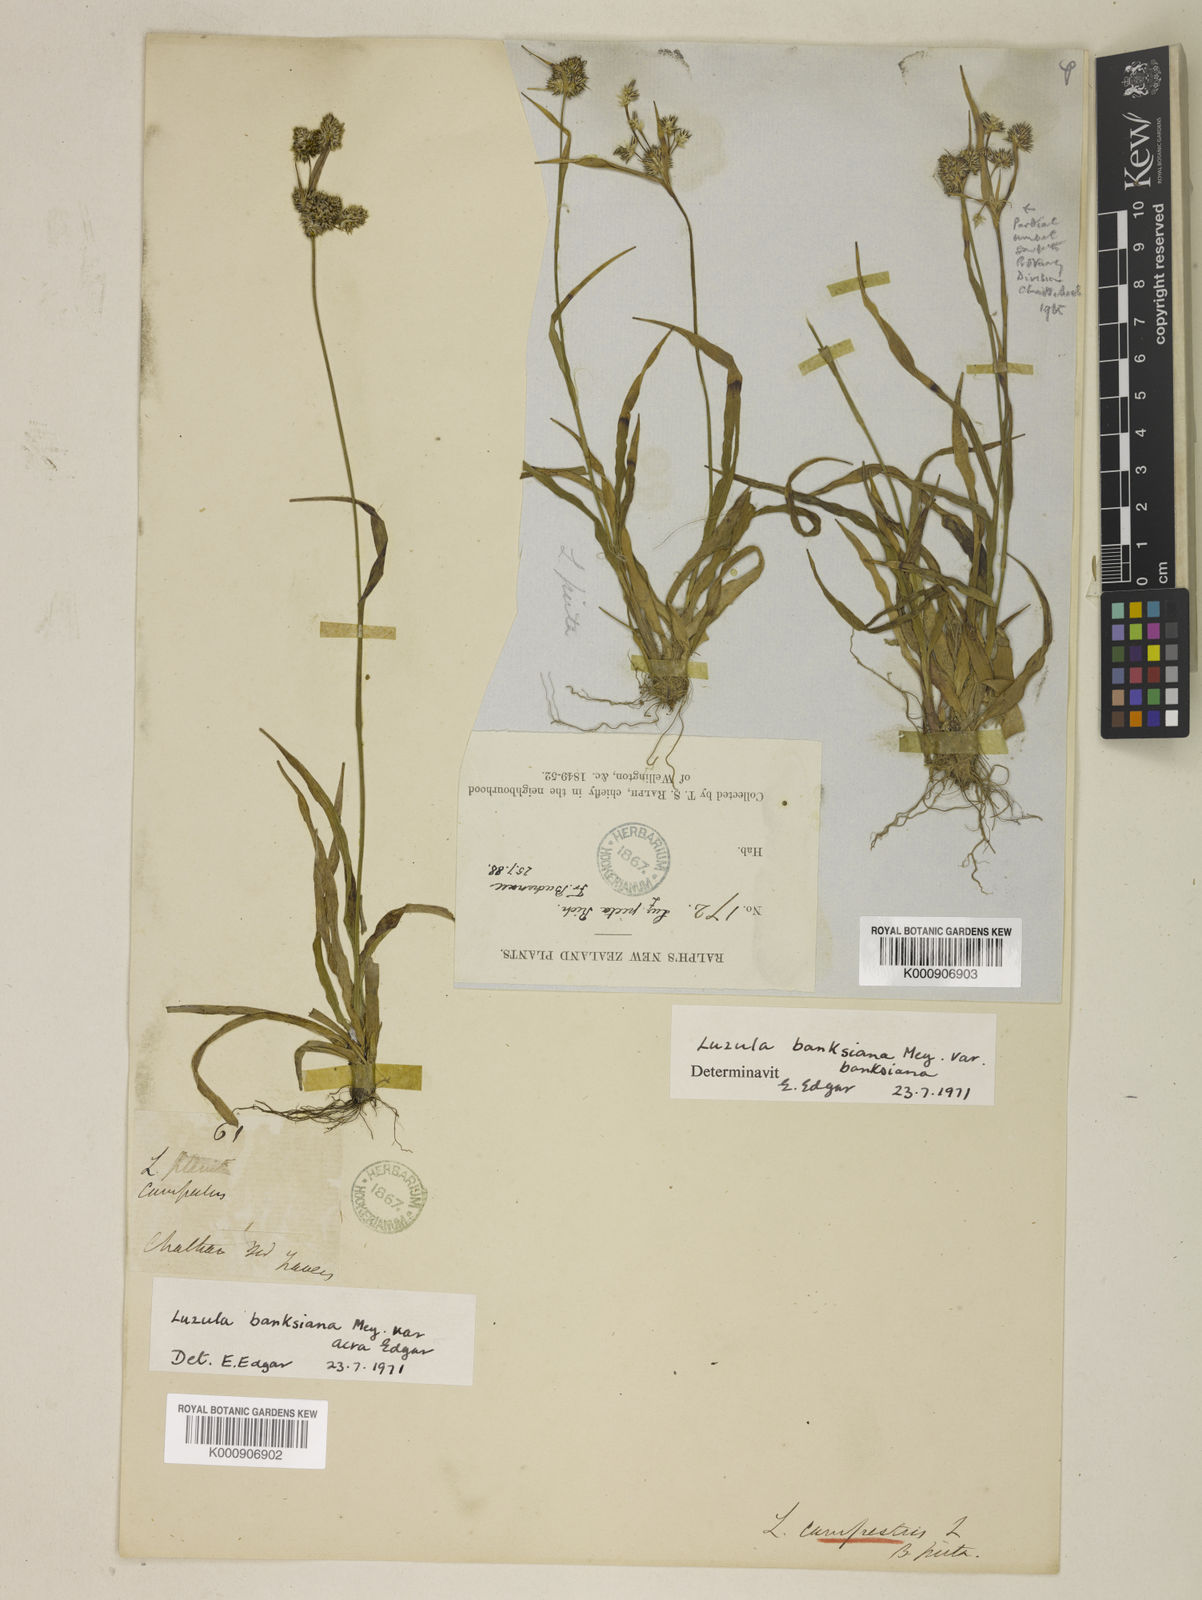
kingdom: Plantae
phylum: Tracheophyta
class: Liliopsida
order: Poales
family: Juncaceae
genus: Luzula
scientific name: Luzula campestris
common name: Field wood-rush
